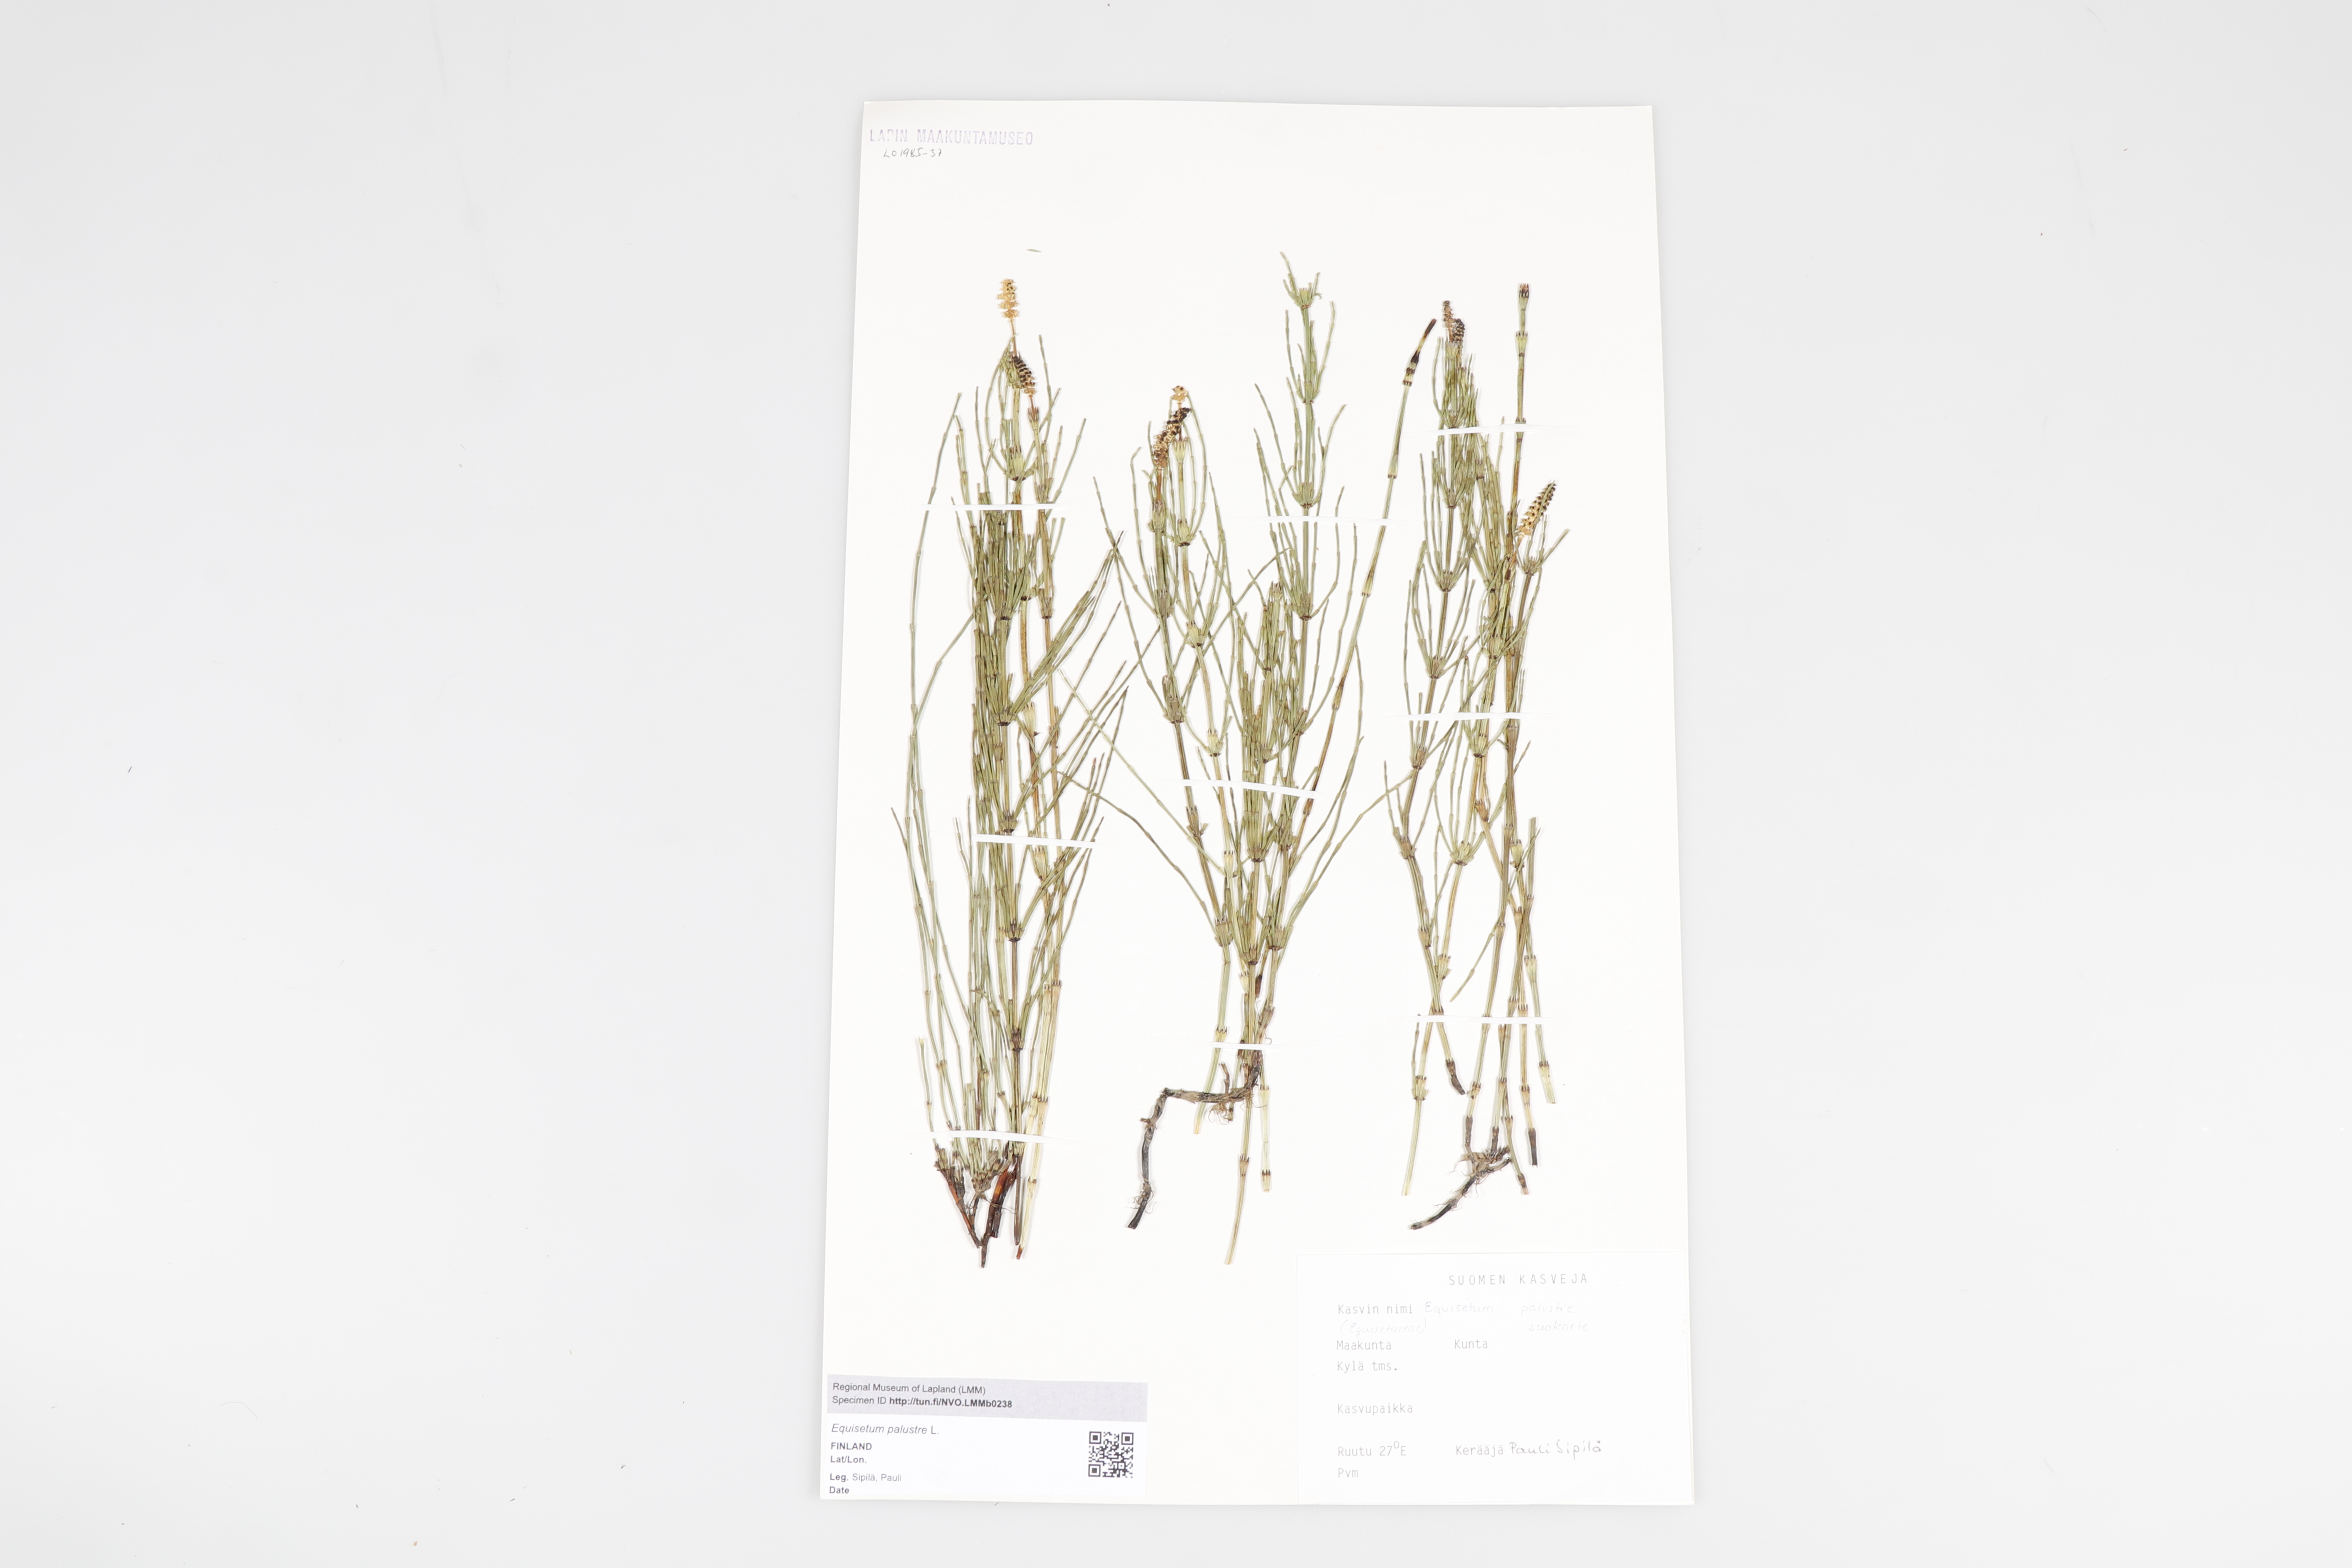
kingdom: Plantae
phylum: Tracheophyta
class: Polypodiopsida
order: Equisetales
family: Equisetaceae
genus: Equisetum
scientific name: Equisetum palustre
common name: Marsh horsetail
